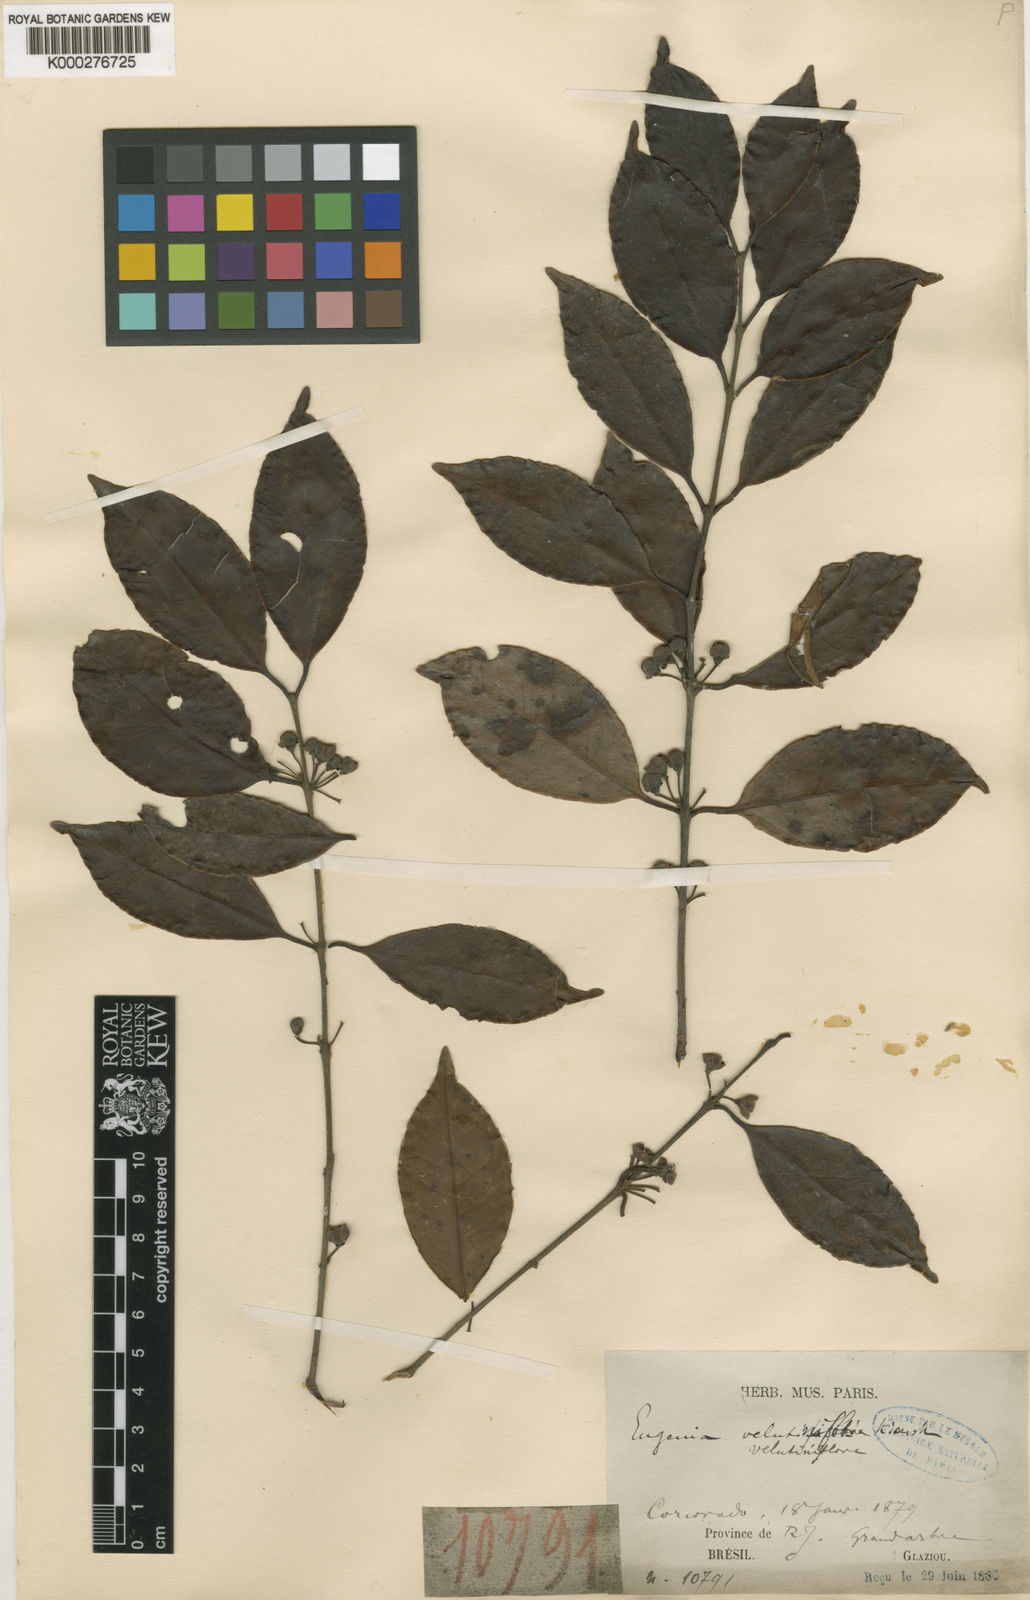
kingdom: Plantae
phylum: Tracheophyta
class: Magnoliopsida
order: Myrtales
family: Myrtaceae
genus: Eugenia
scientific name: Eugenia bahiensis
